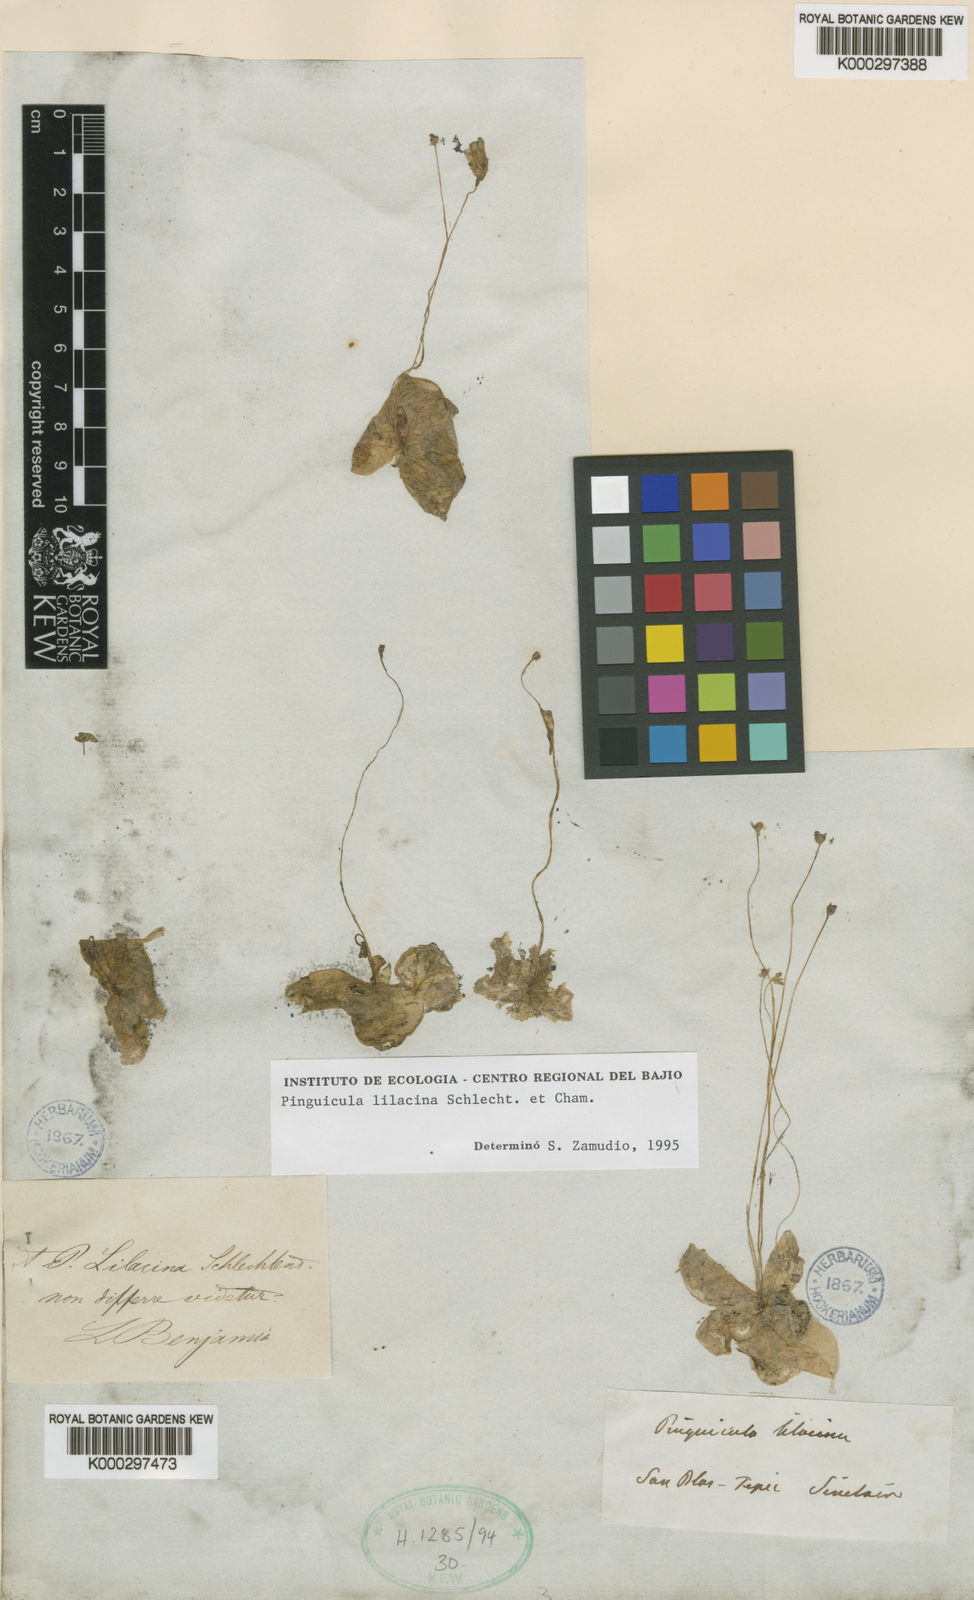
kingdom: Plantae
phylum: Tracheophyta
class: Magnoliopsida
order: Lamiales
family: Lentibulariaceae
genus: Pinguicula
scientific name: Pinguicula lilacina
